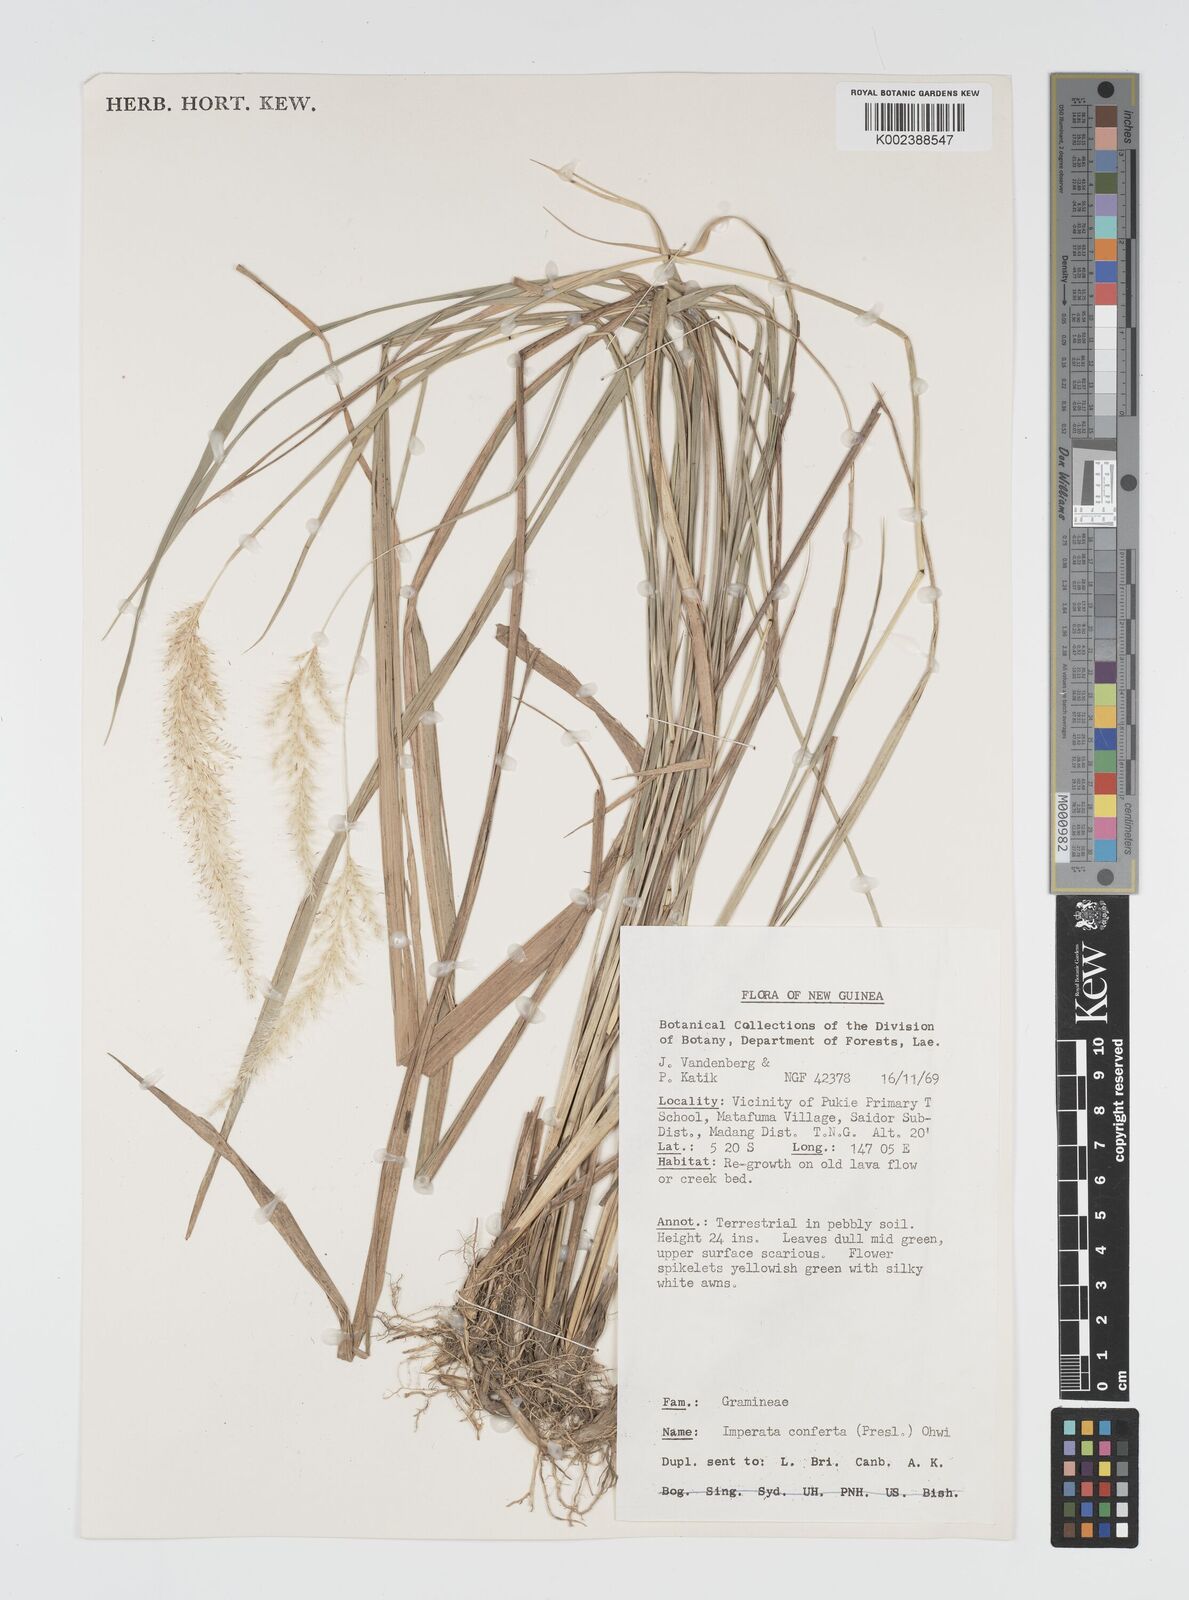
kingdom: Plantae
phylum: Tracheophyta
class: Liliopsida
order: Poales
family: Poaceae
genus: Imperata
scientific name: Imperata conferta
